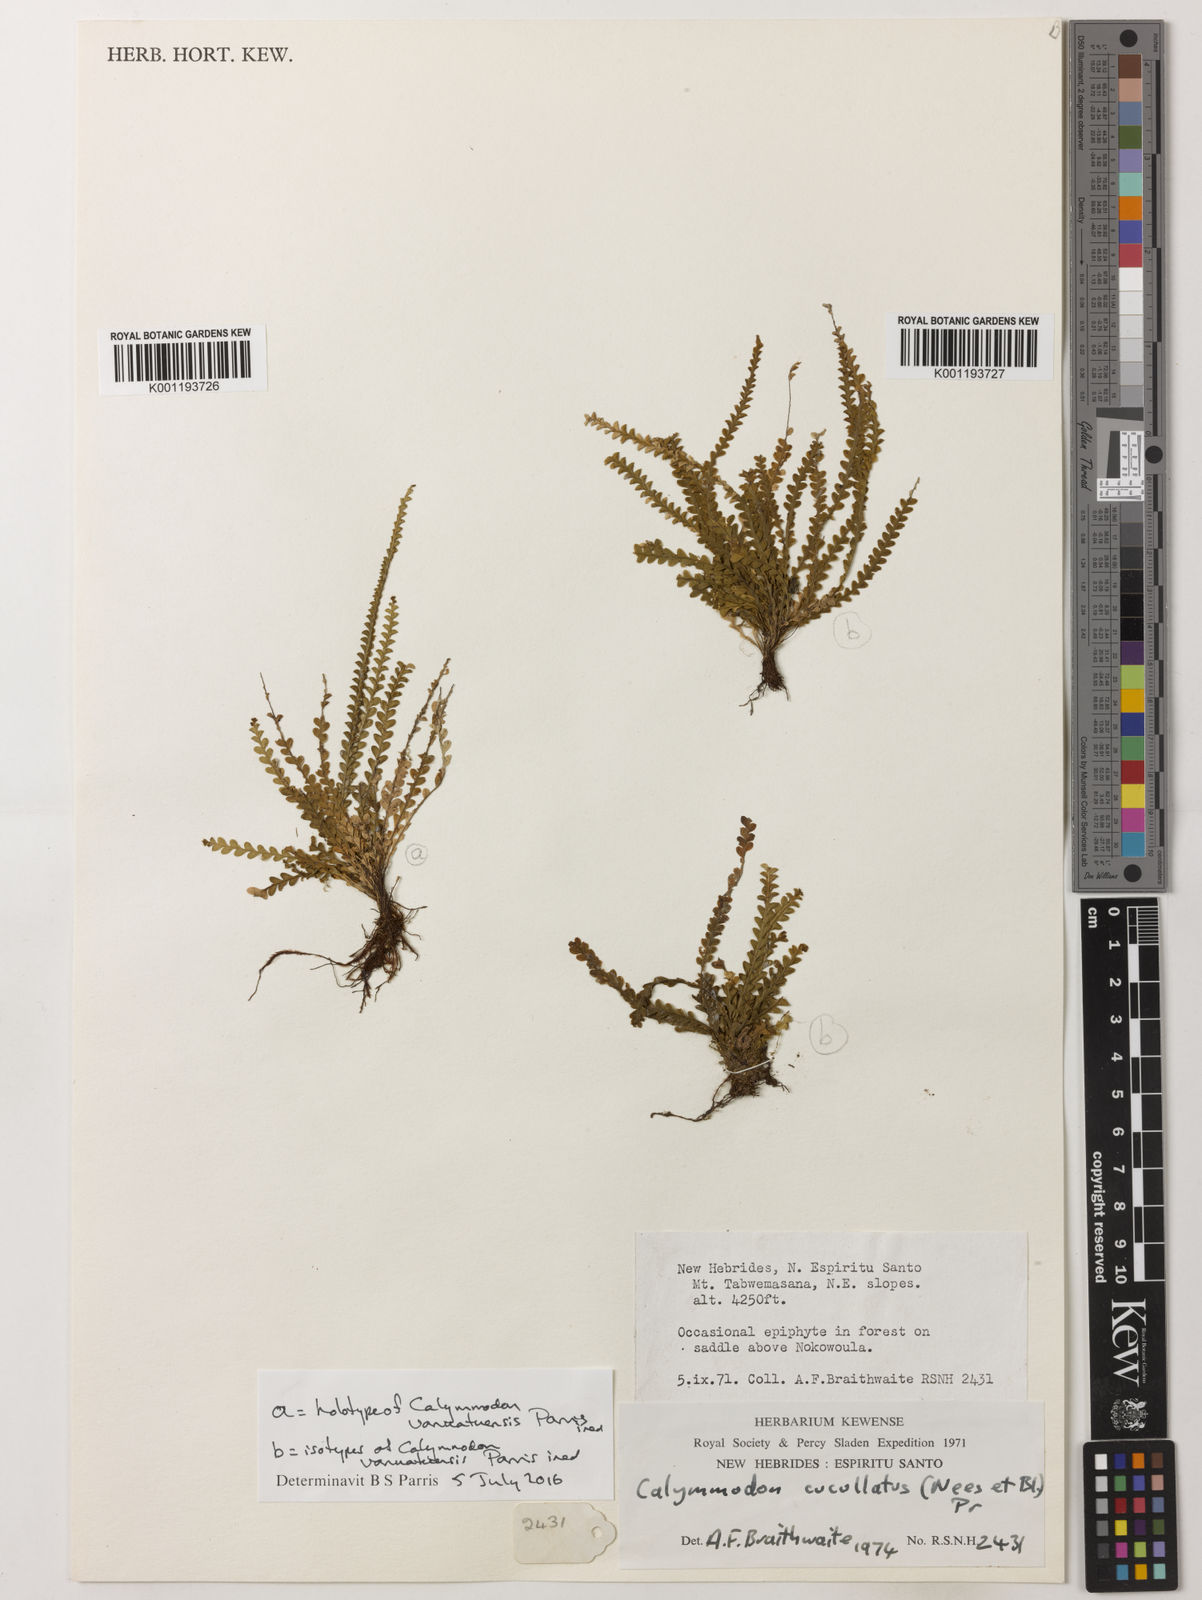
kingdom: Plantae
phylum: Tracheophyta
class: Polypodiopsida
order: Polypodiales
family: Polypodiaceae
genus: Calymmodon
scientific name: Calymmodon
